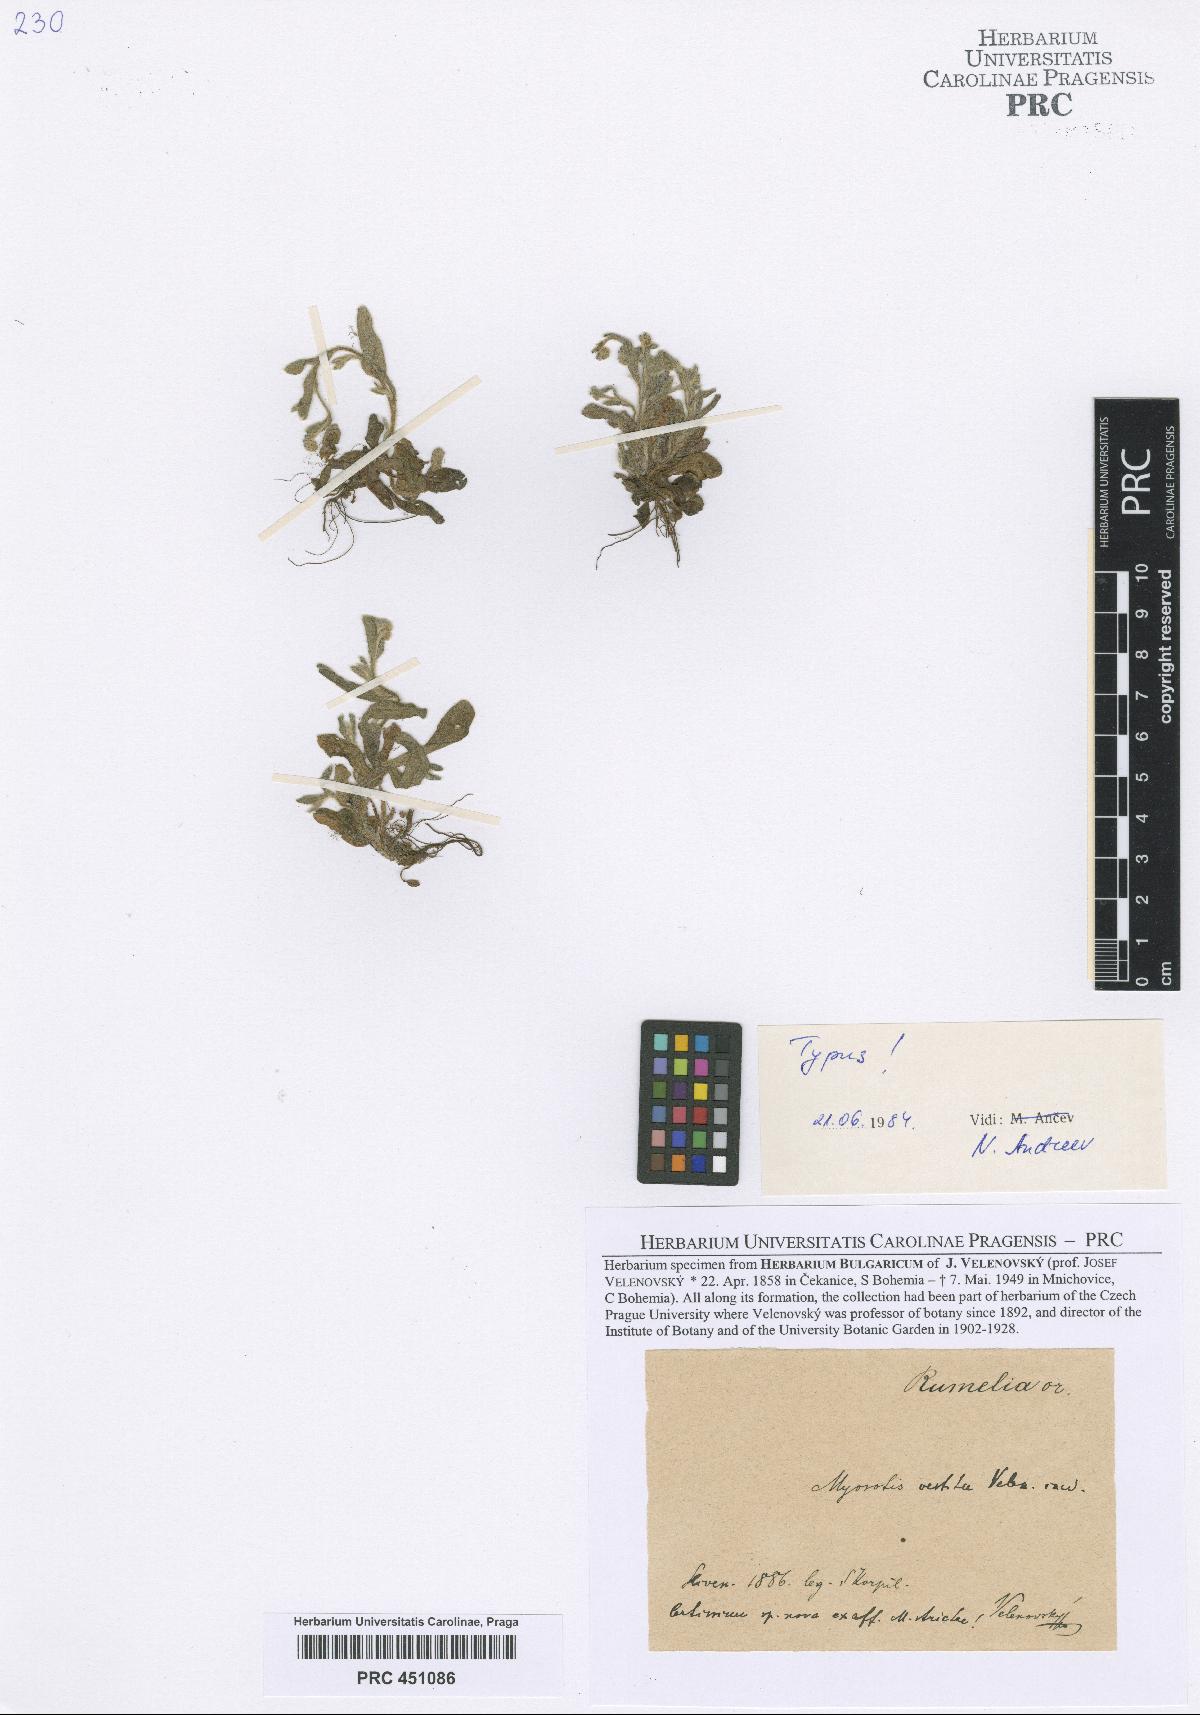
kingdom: Plantae
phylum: Tracheophyta
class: Magnoliopsida
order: Boraginales
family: Boraginaceae
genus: Myosotis
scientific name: Myosotis stricta
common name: Strict forget-me-not
